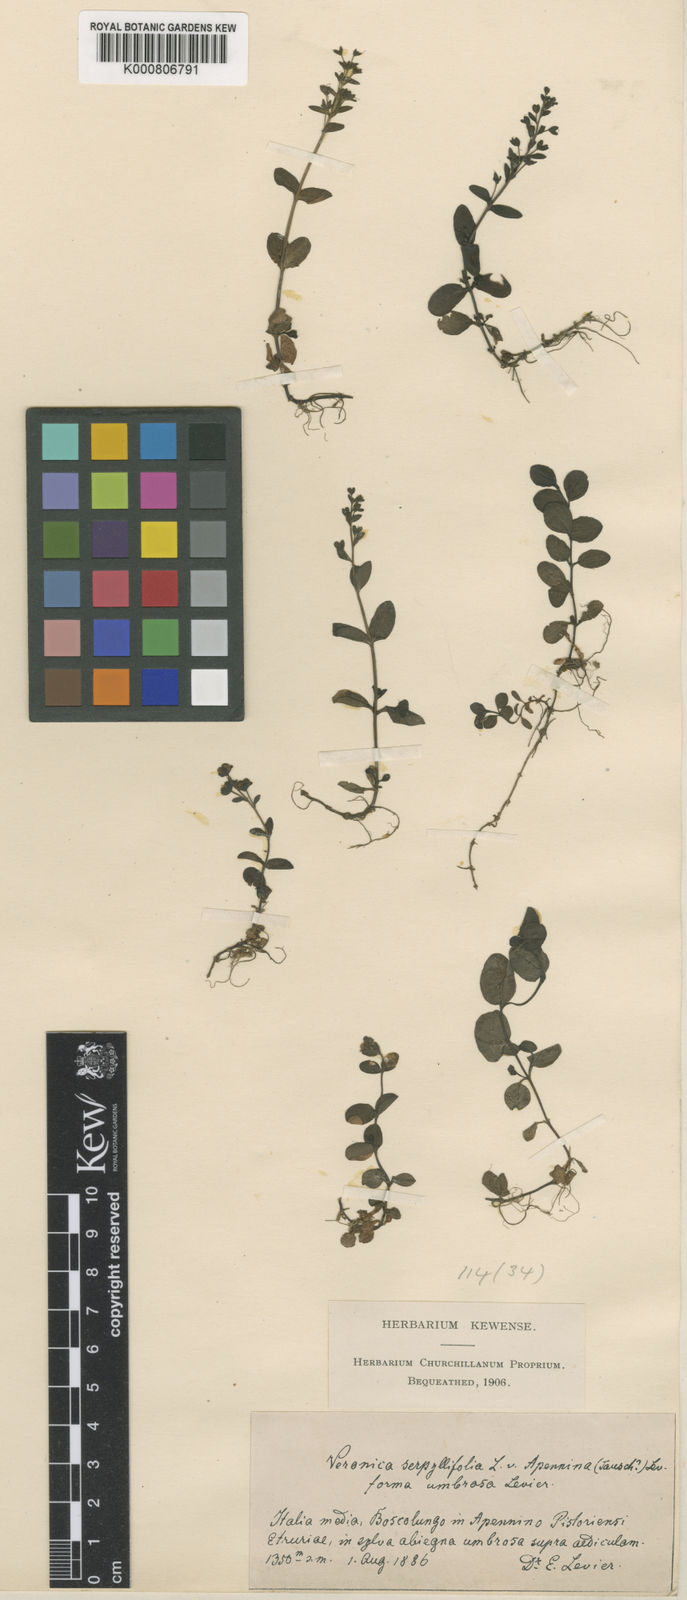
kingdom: Plantae
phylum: Tracheophyta
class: Magnoliopsida
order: Lamiales
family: Plantaginaceae
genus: Veronica
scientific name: Veronica serpyllifolia
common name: Thyme-leaved speedwell
